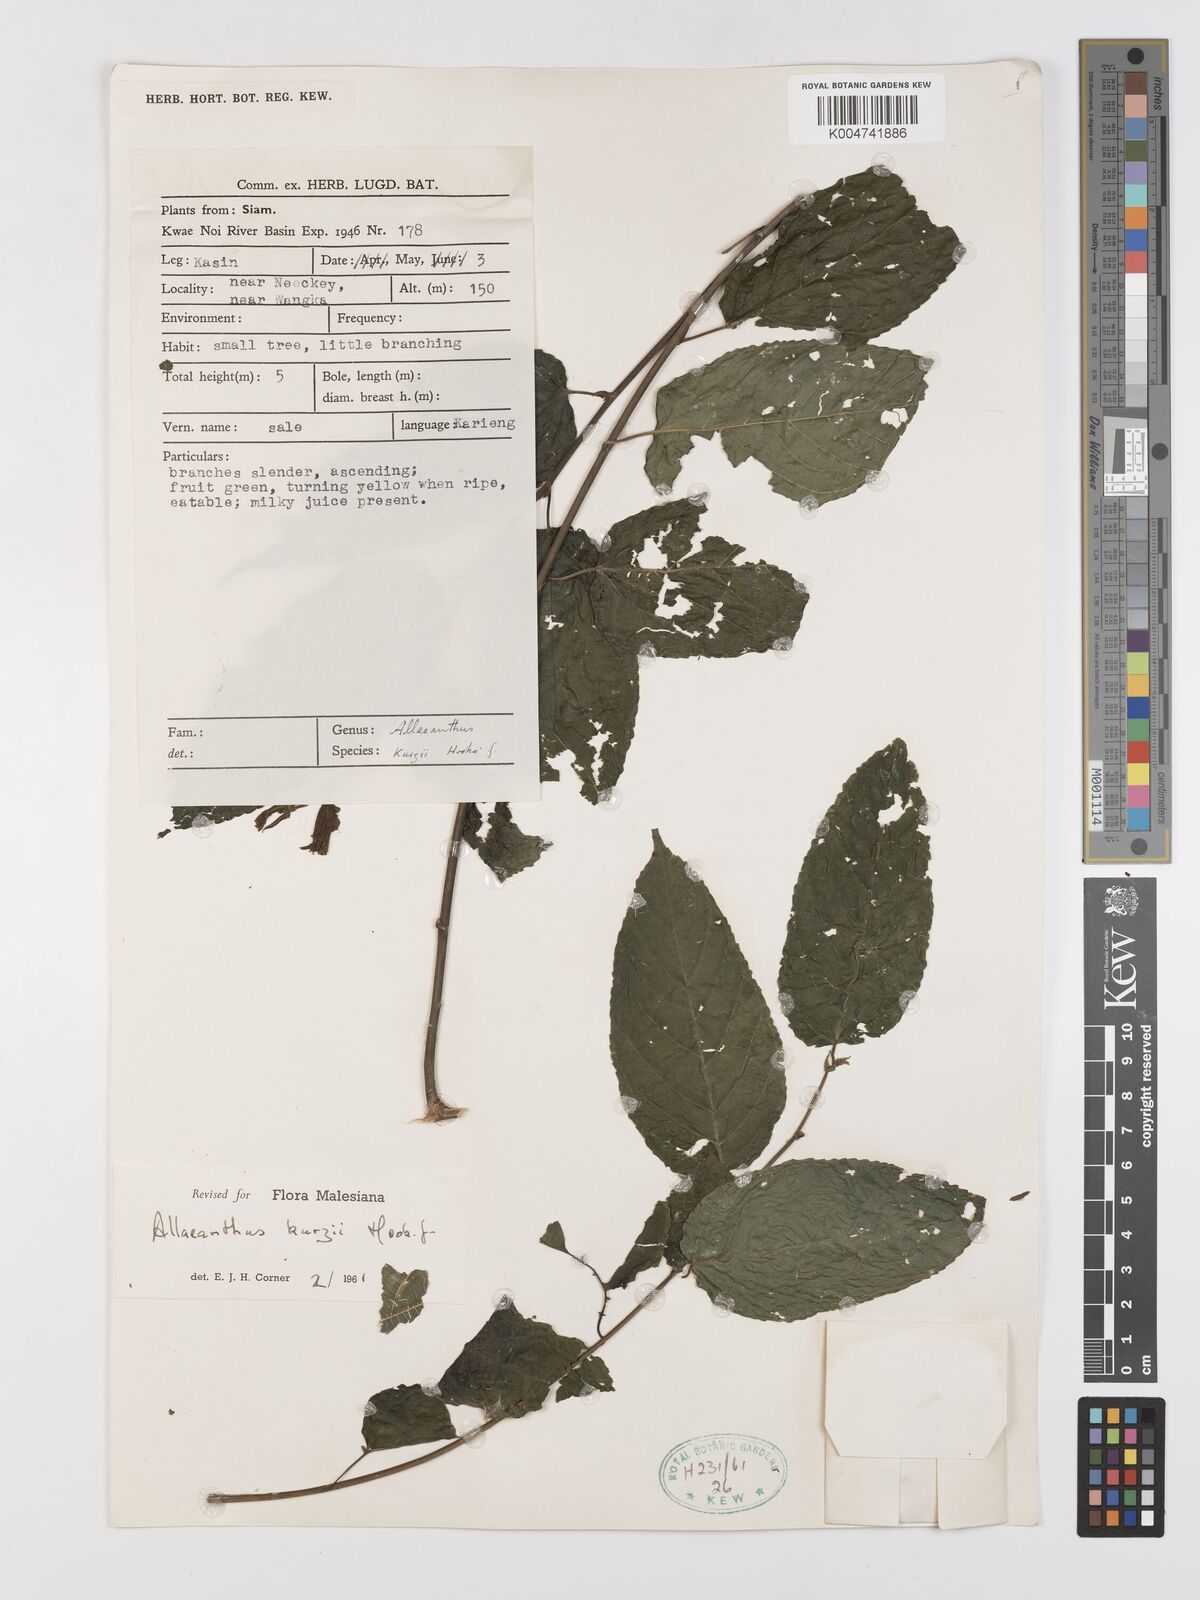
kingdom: Plantae
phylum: Tracheophyta
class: Magnoliopsida
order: Rosales
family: Moraceae
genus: Allaeanthus
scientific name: Allaeanthus kurzii
